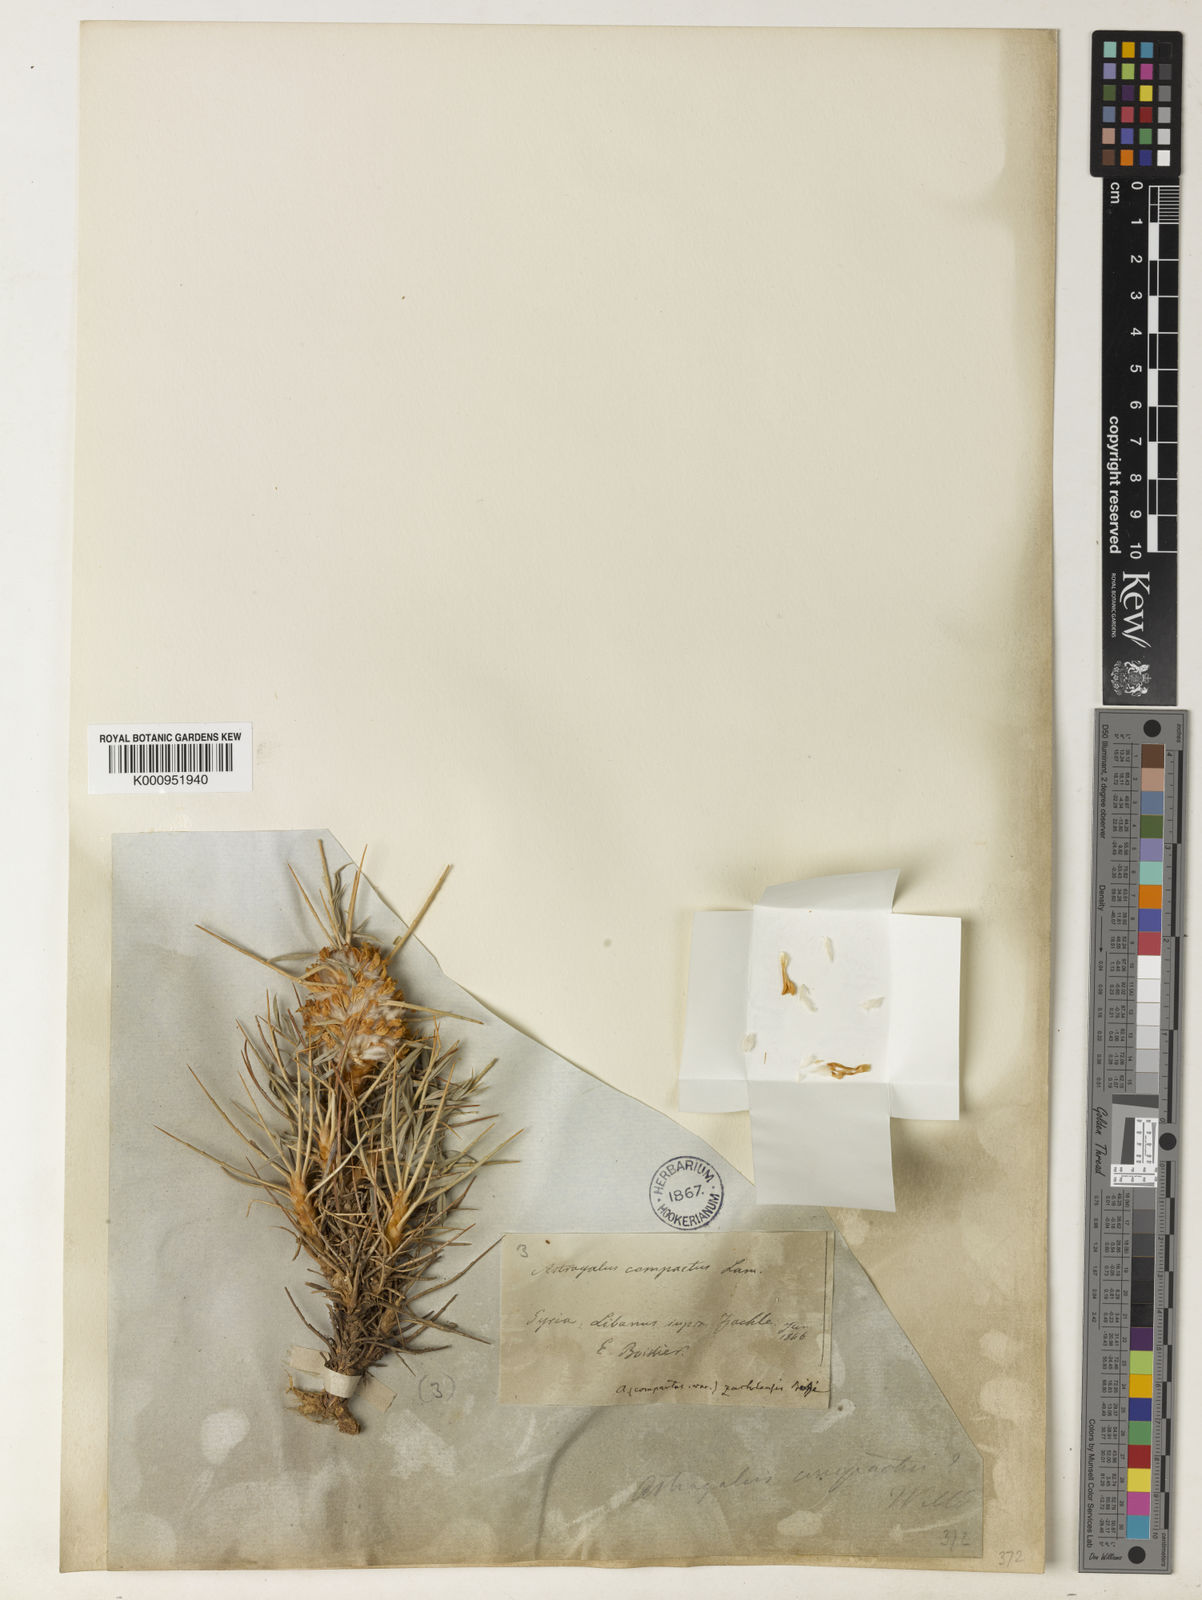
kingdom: Plantae
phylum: Tracheophyta
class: Magnoliopsida
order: Fabales
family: Fabaceae
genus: Astragalus
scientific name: Astragalus zachlensis
